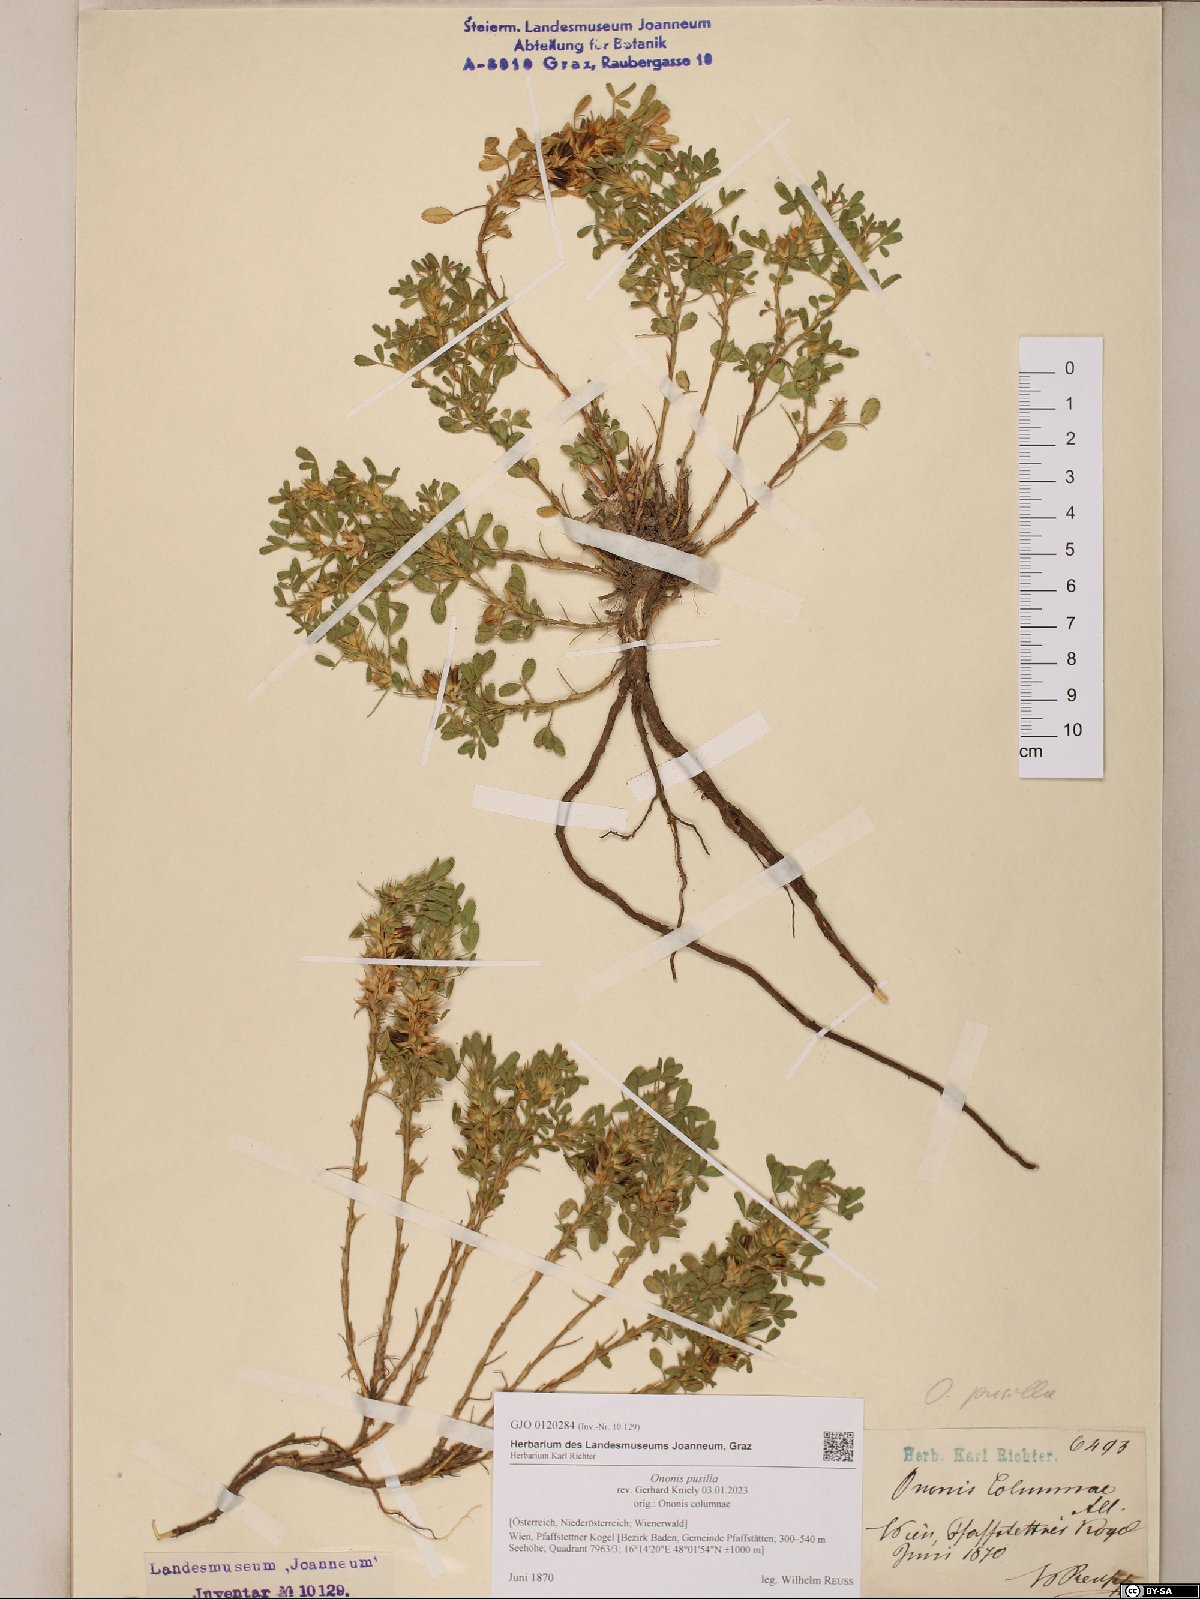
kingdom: Plantae
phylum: Tracheophyta
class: Magnoliopsida
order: Fabales
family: Fabaceae
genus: Ononis
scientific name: Ononis pusilla
